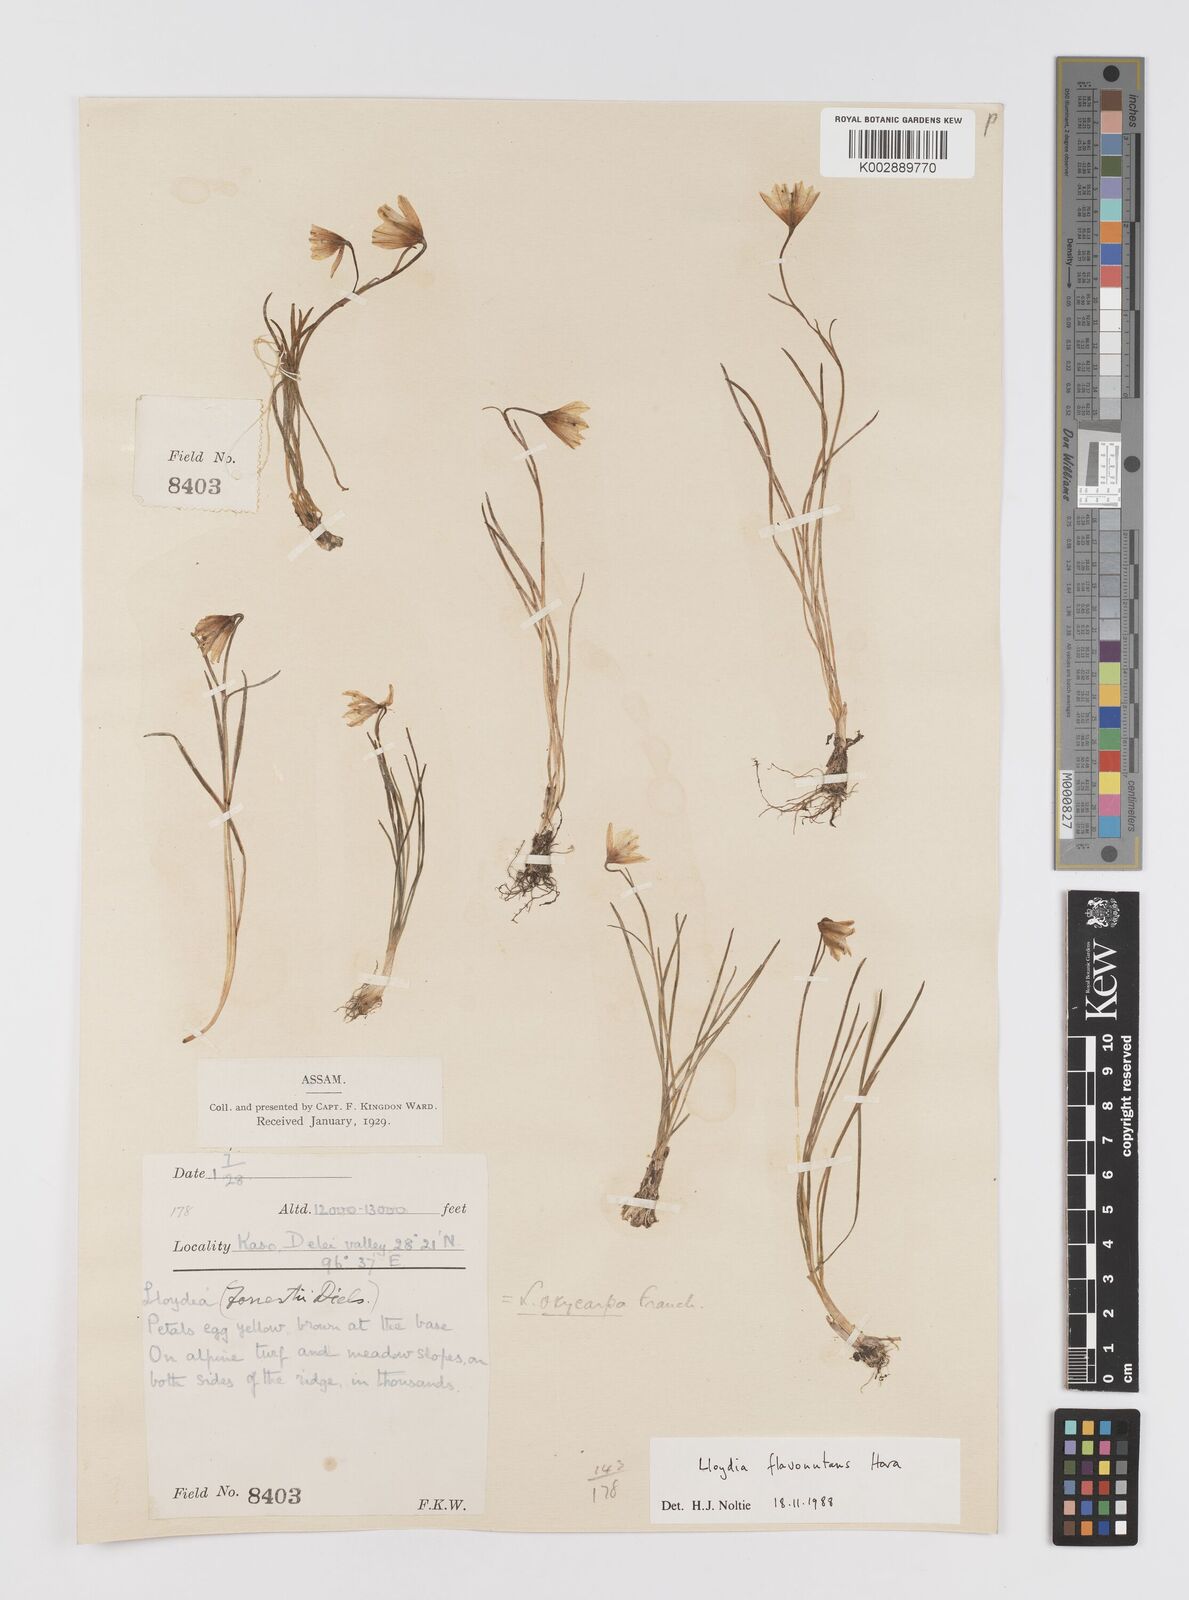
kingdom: Plantae
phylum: Tracheophyta
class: Liliopsida
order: Liliales
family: Liliaceae
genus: Gagea
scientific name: Gagea flavonutans
